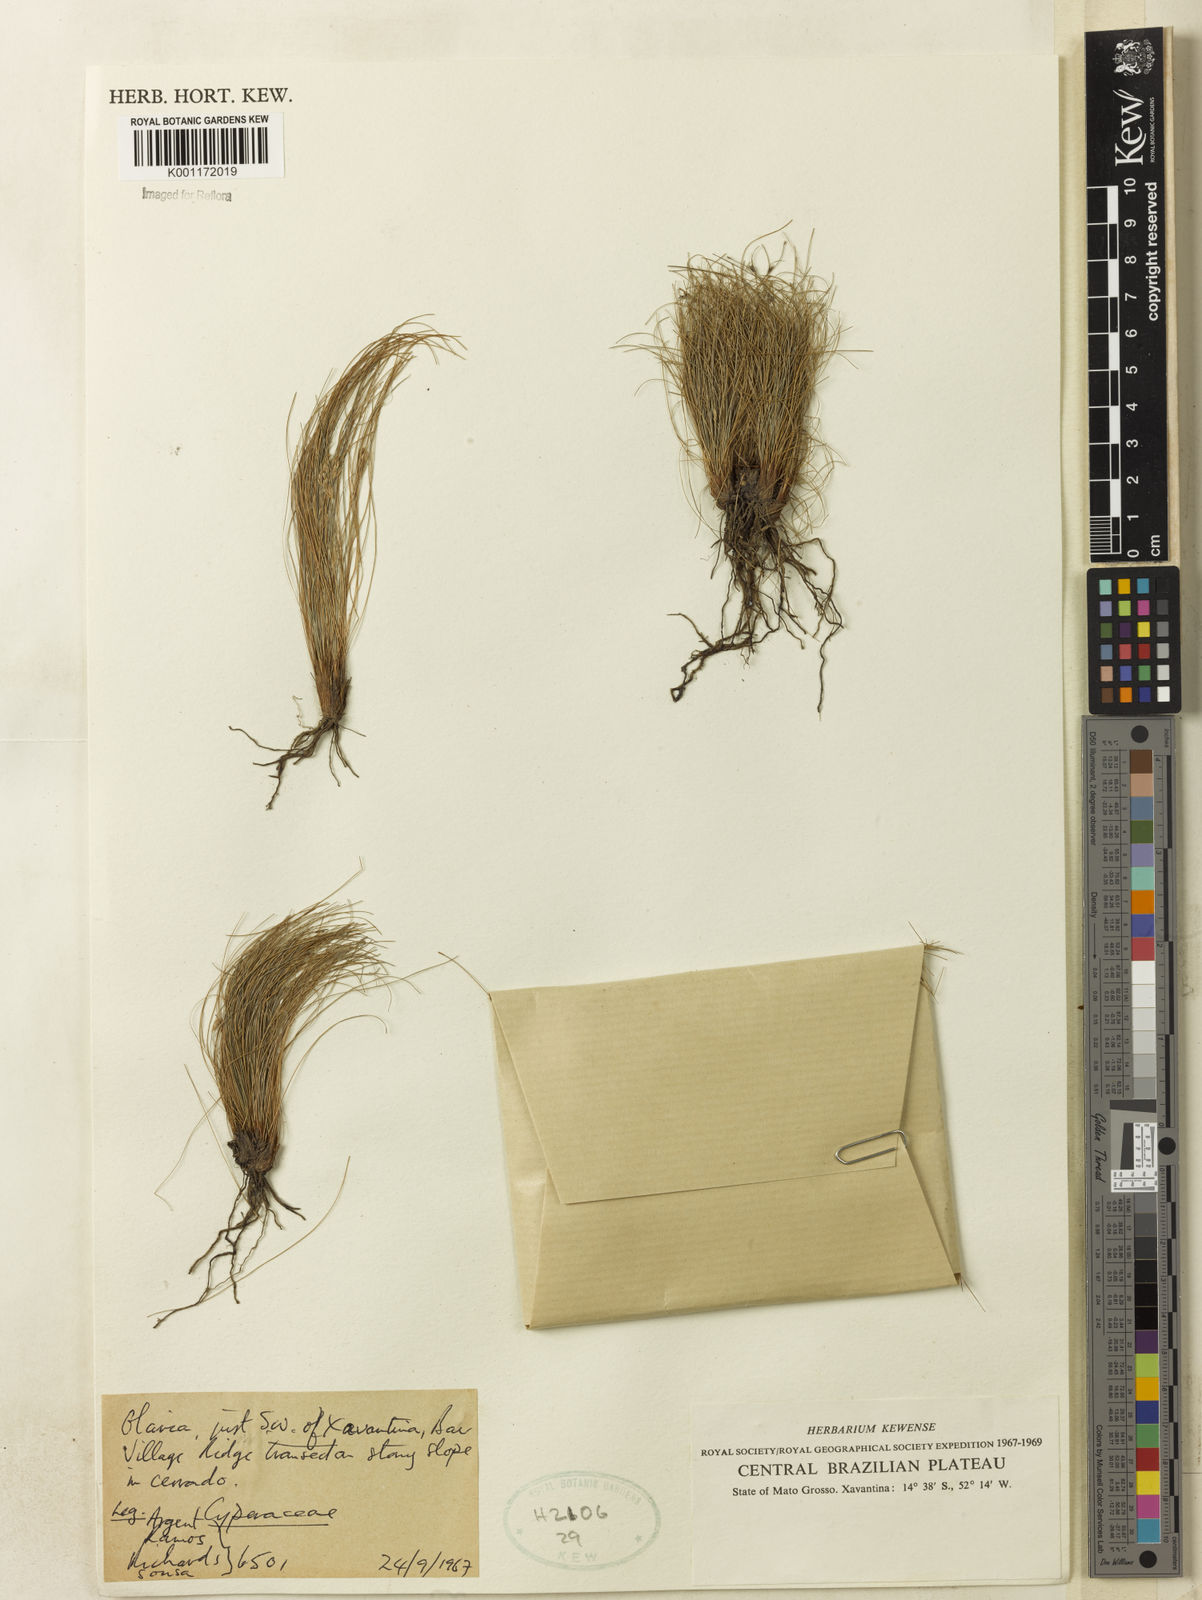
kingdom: Plantae
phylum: Tracheophyta
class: Liliopsida
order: Poales
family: Cyperaceae
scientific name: Cyperaceae
